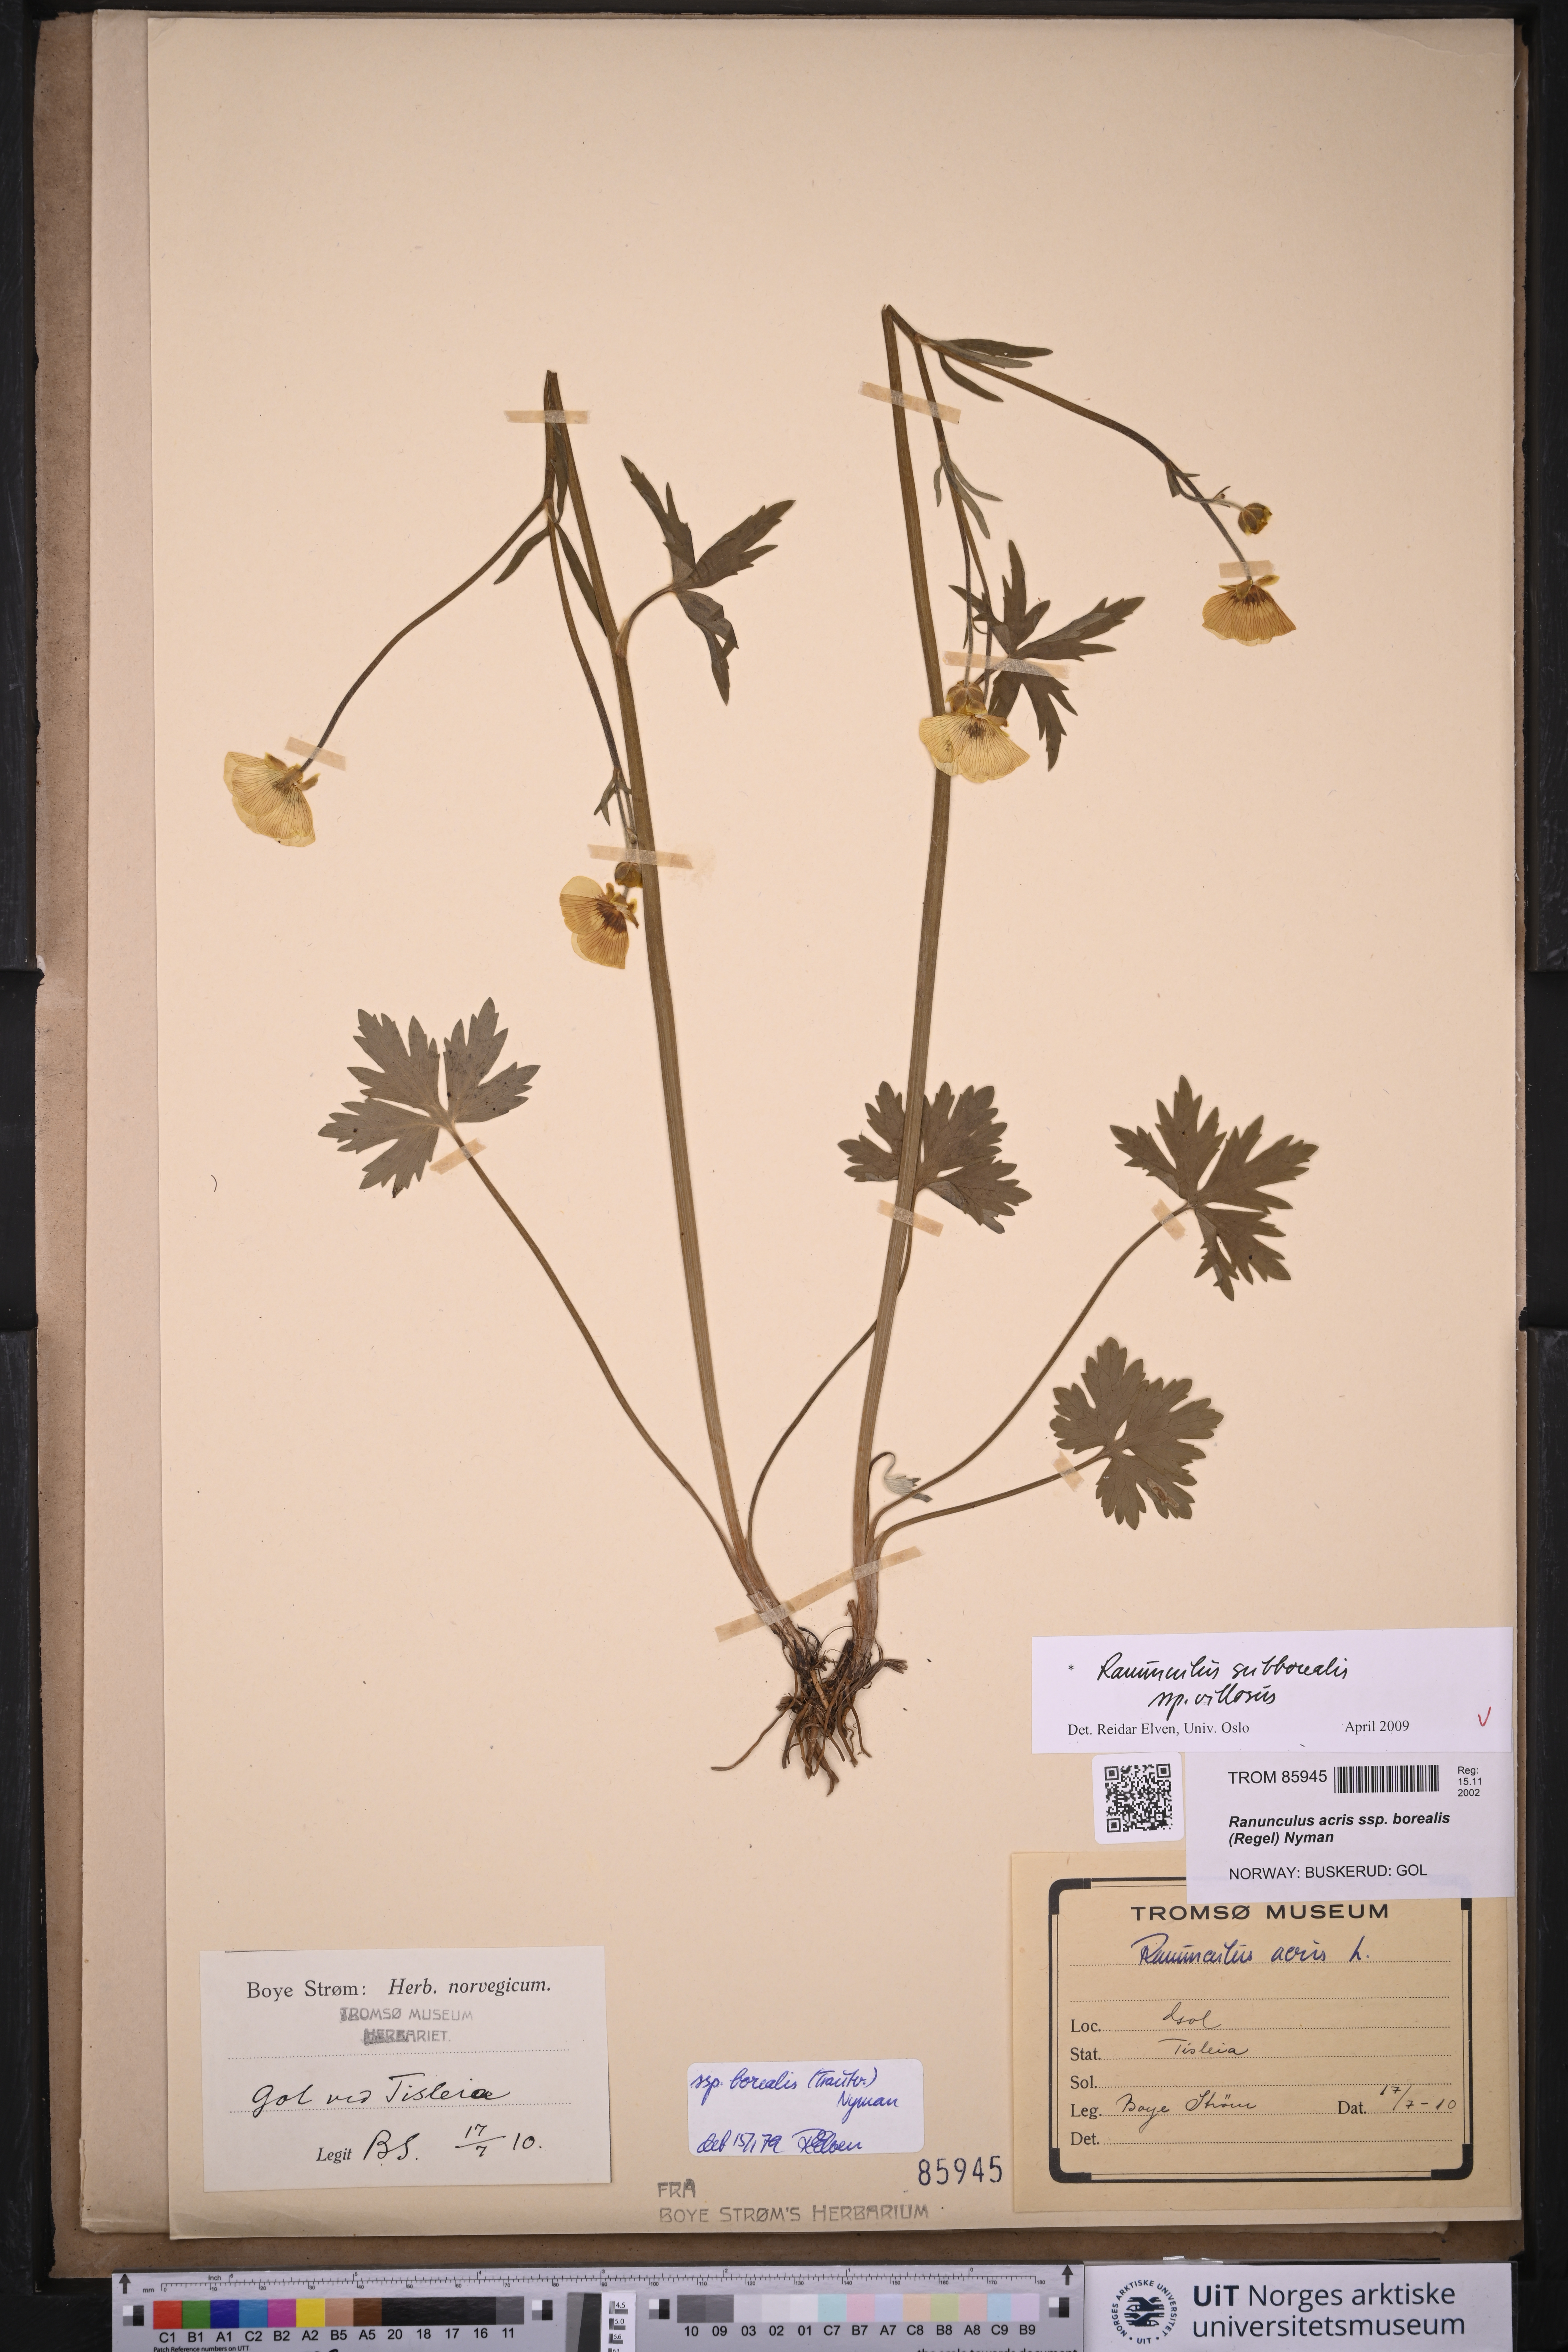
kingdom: Plantae
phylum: Tracheophyta
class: Magnoliopsida
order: Ranunculales
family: Ranunculaceae
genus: Ranunculus
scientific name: Ranunculus propinquus
